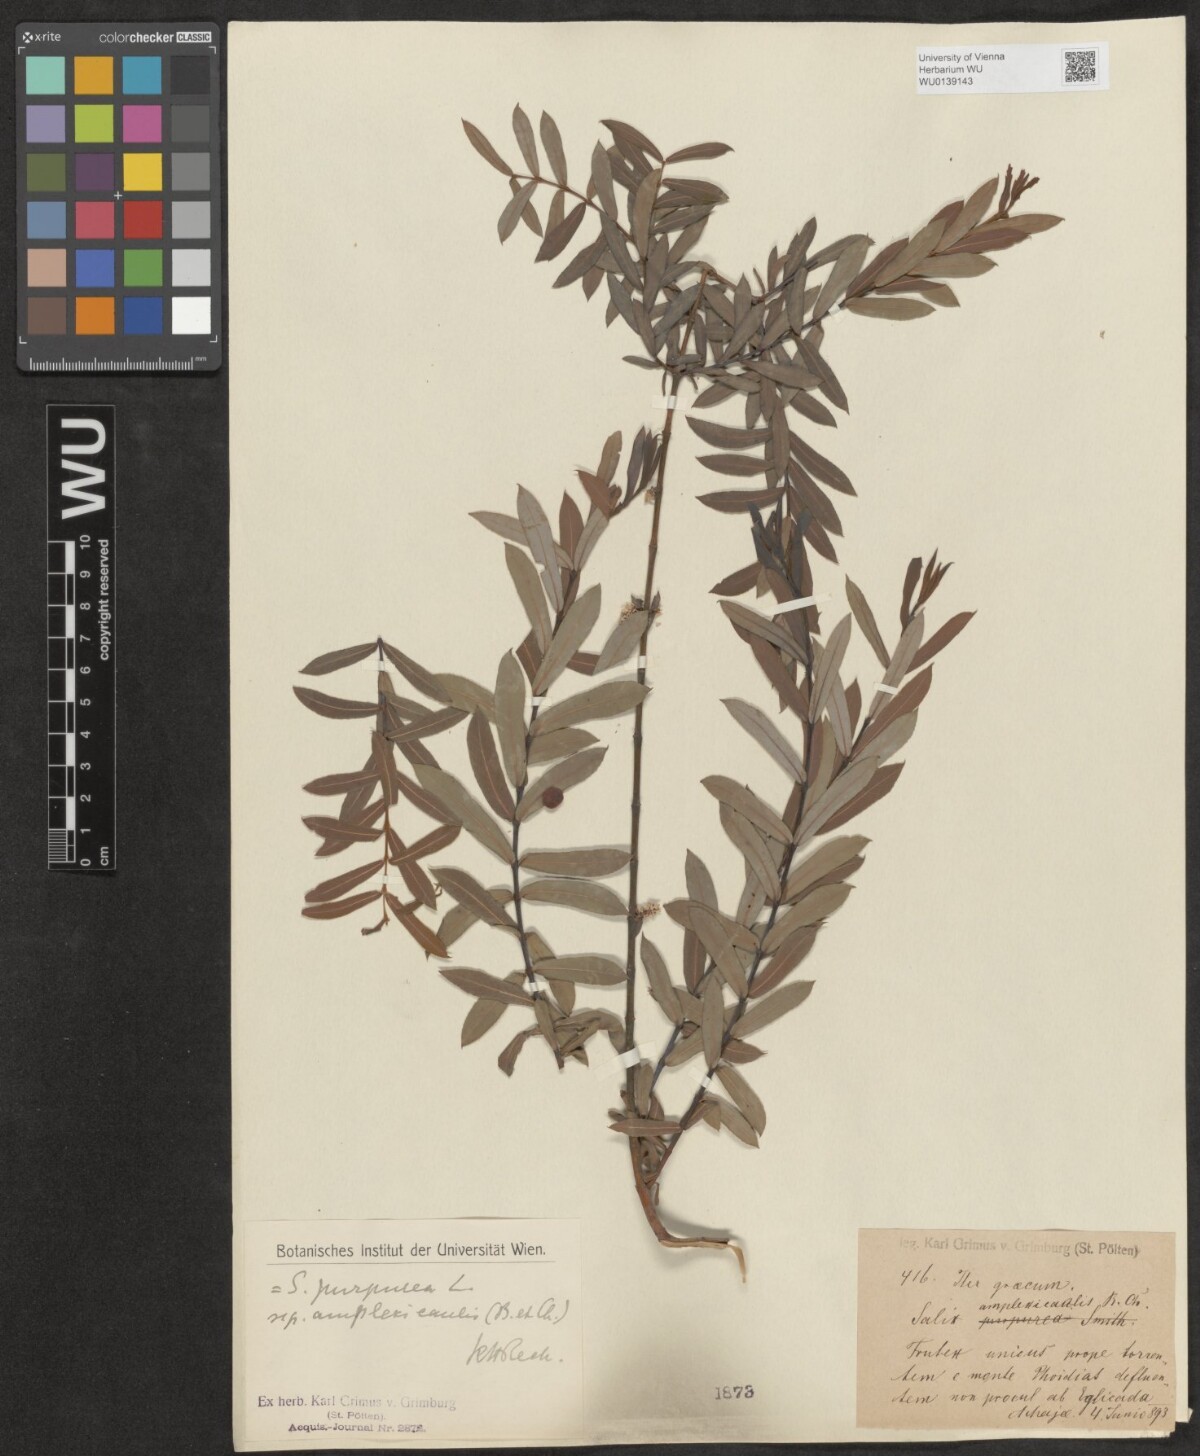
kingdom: Plantae
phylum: Tracheophyta
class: Magnoliopsida
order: Malpighiales
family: Salicaceae
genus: Salix
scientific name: Salix amplexicaulis
